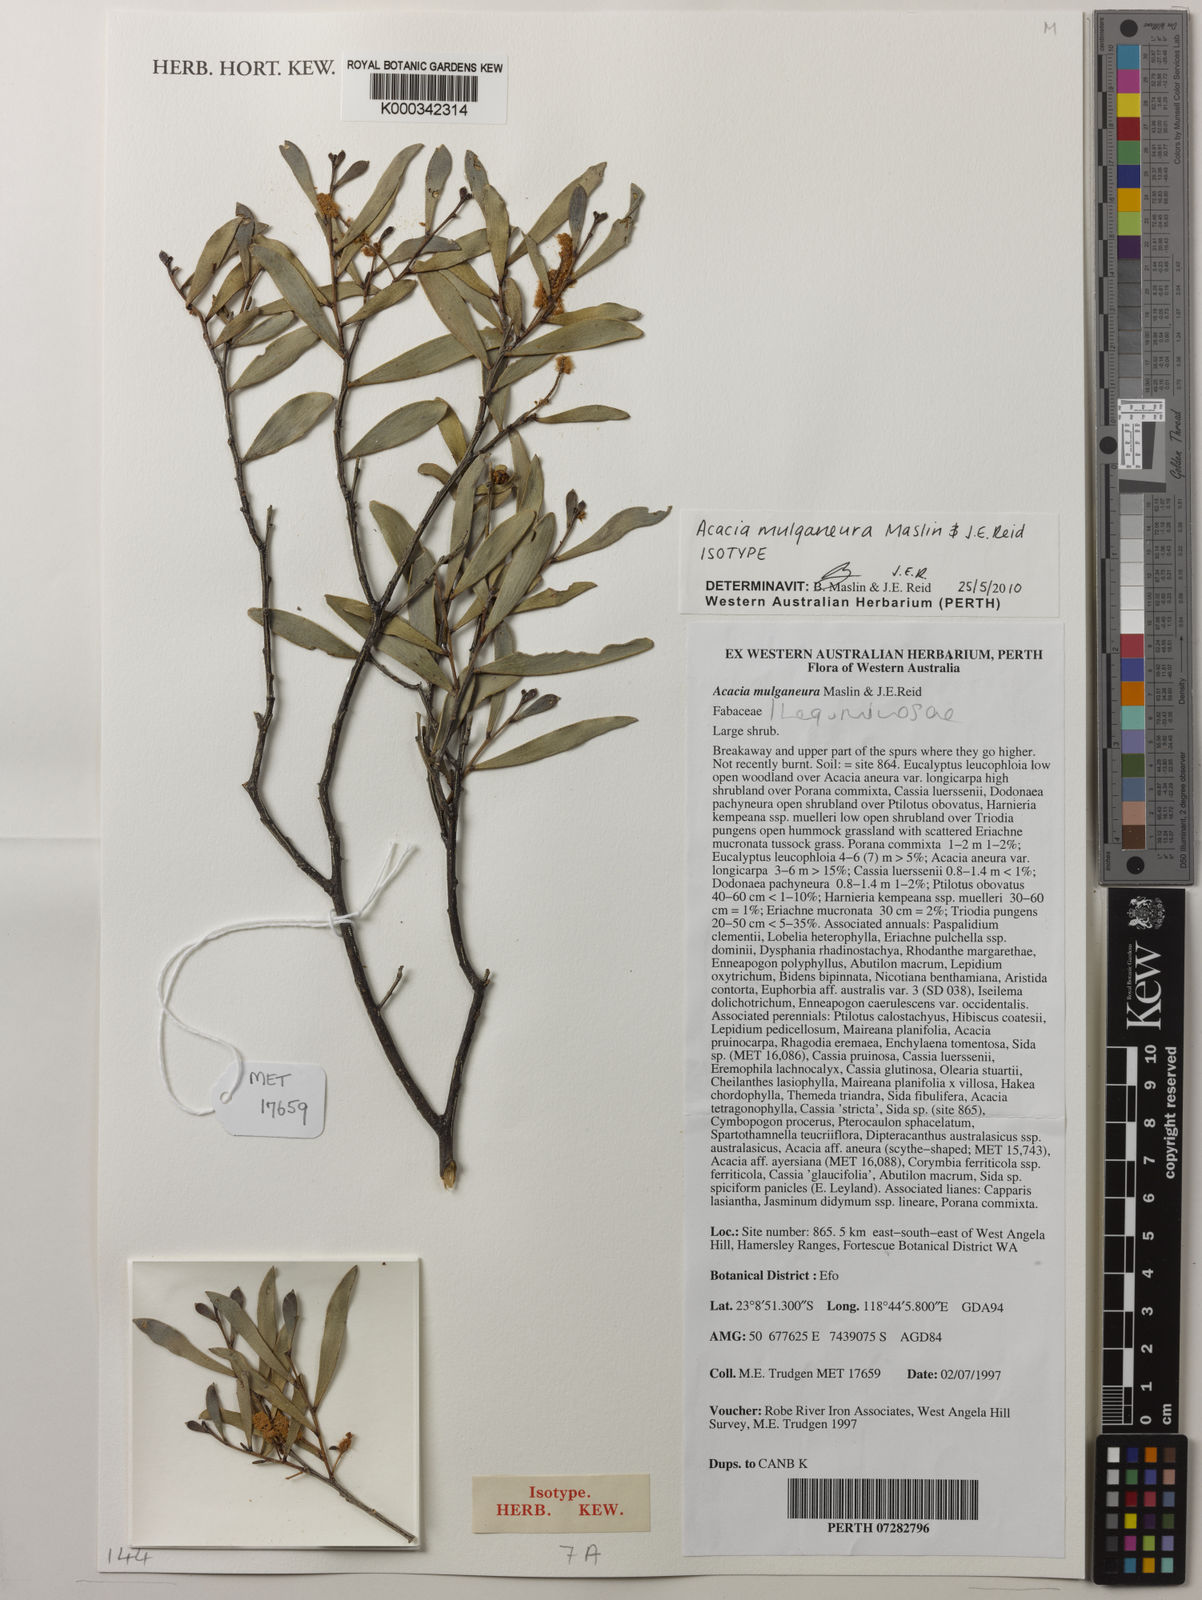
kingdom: Plantae
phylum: Tracheophyta
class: Magnoliopsida
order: Fabales
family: Fabaceae
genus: Acacia
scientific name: Acacia mulganeura
